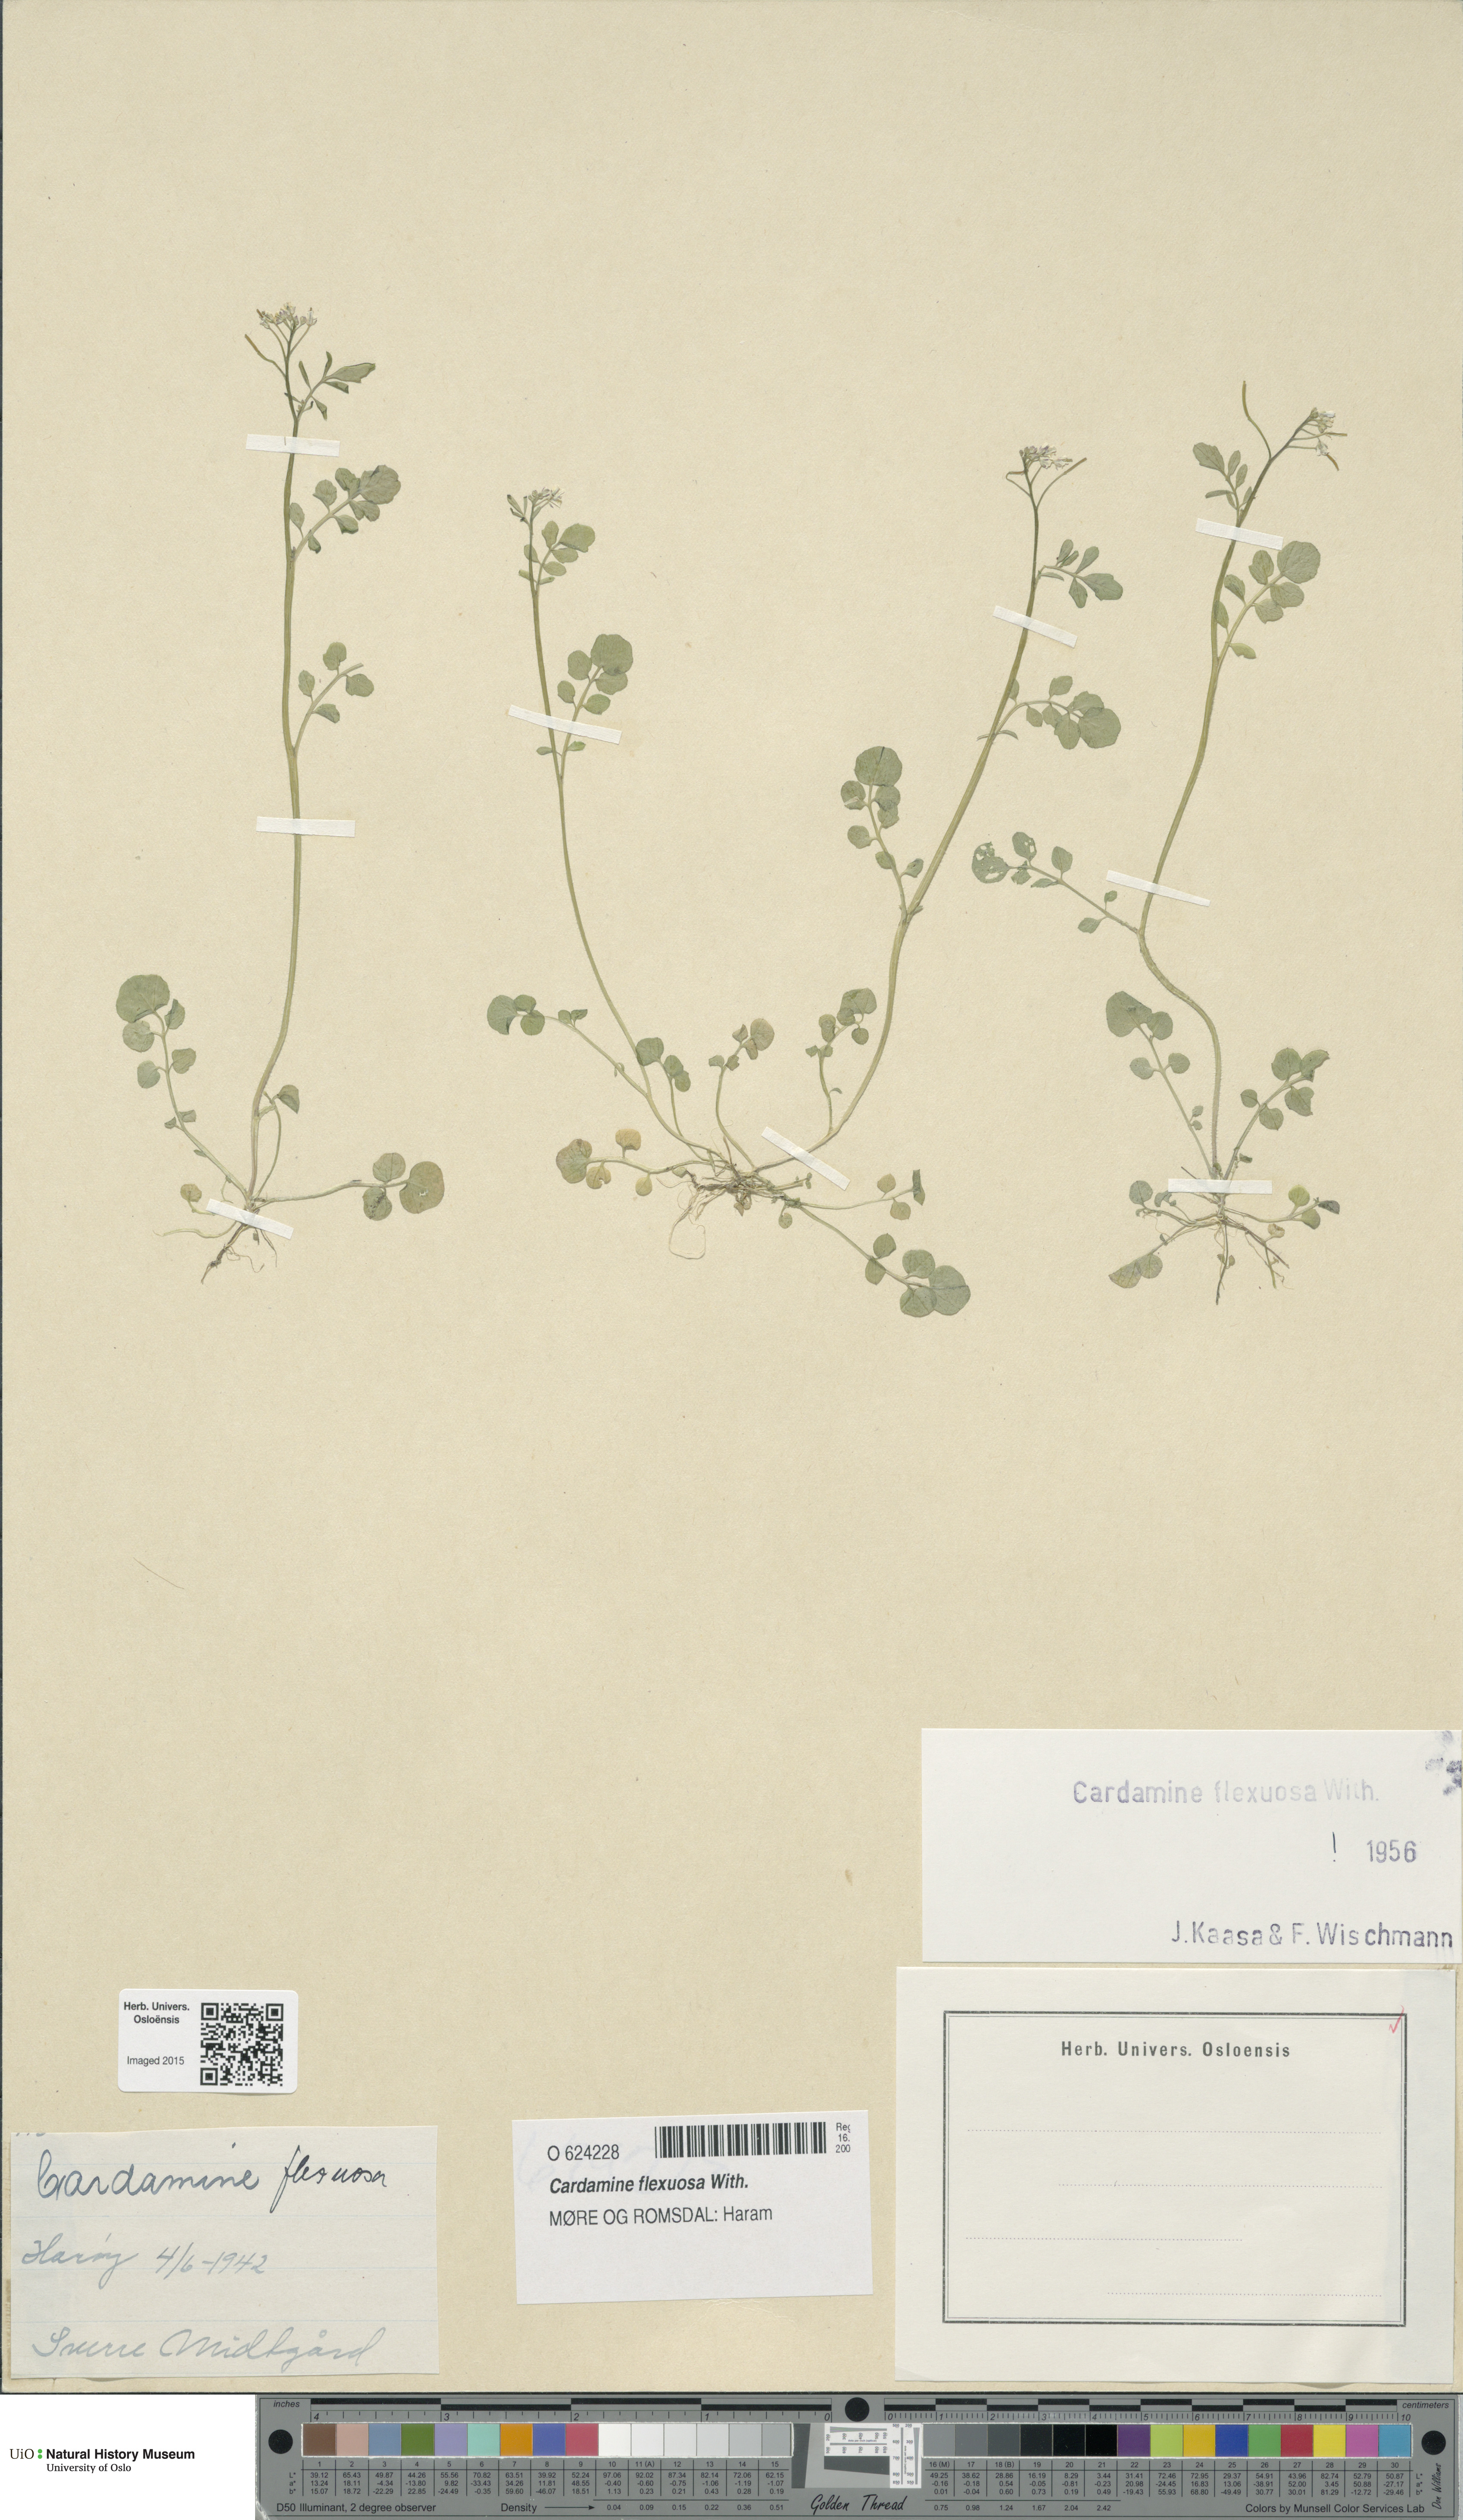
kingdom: Plantae
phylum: Tracheophyta
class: Magnoliopsida
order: Brassicales
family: Brassicaceae
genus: Cardamine
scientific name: Cardamine flexuosa
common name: Woodland bittercress
